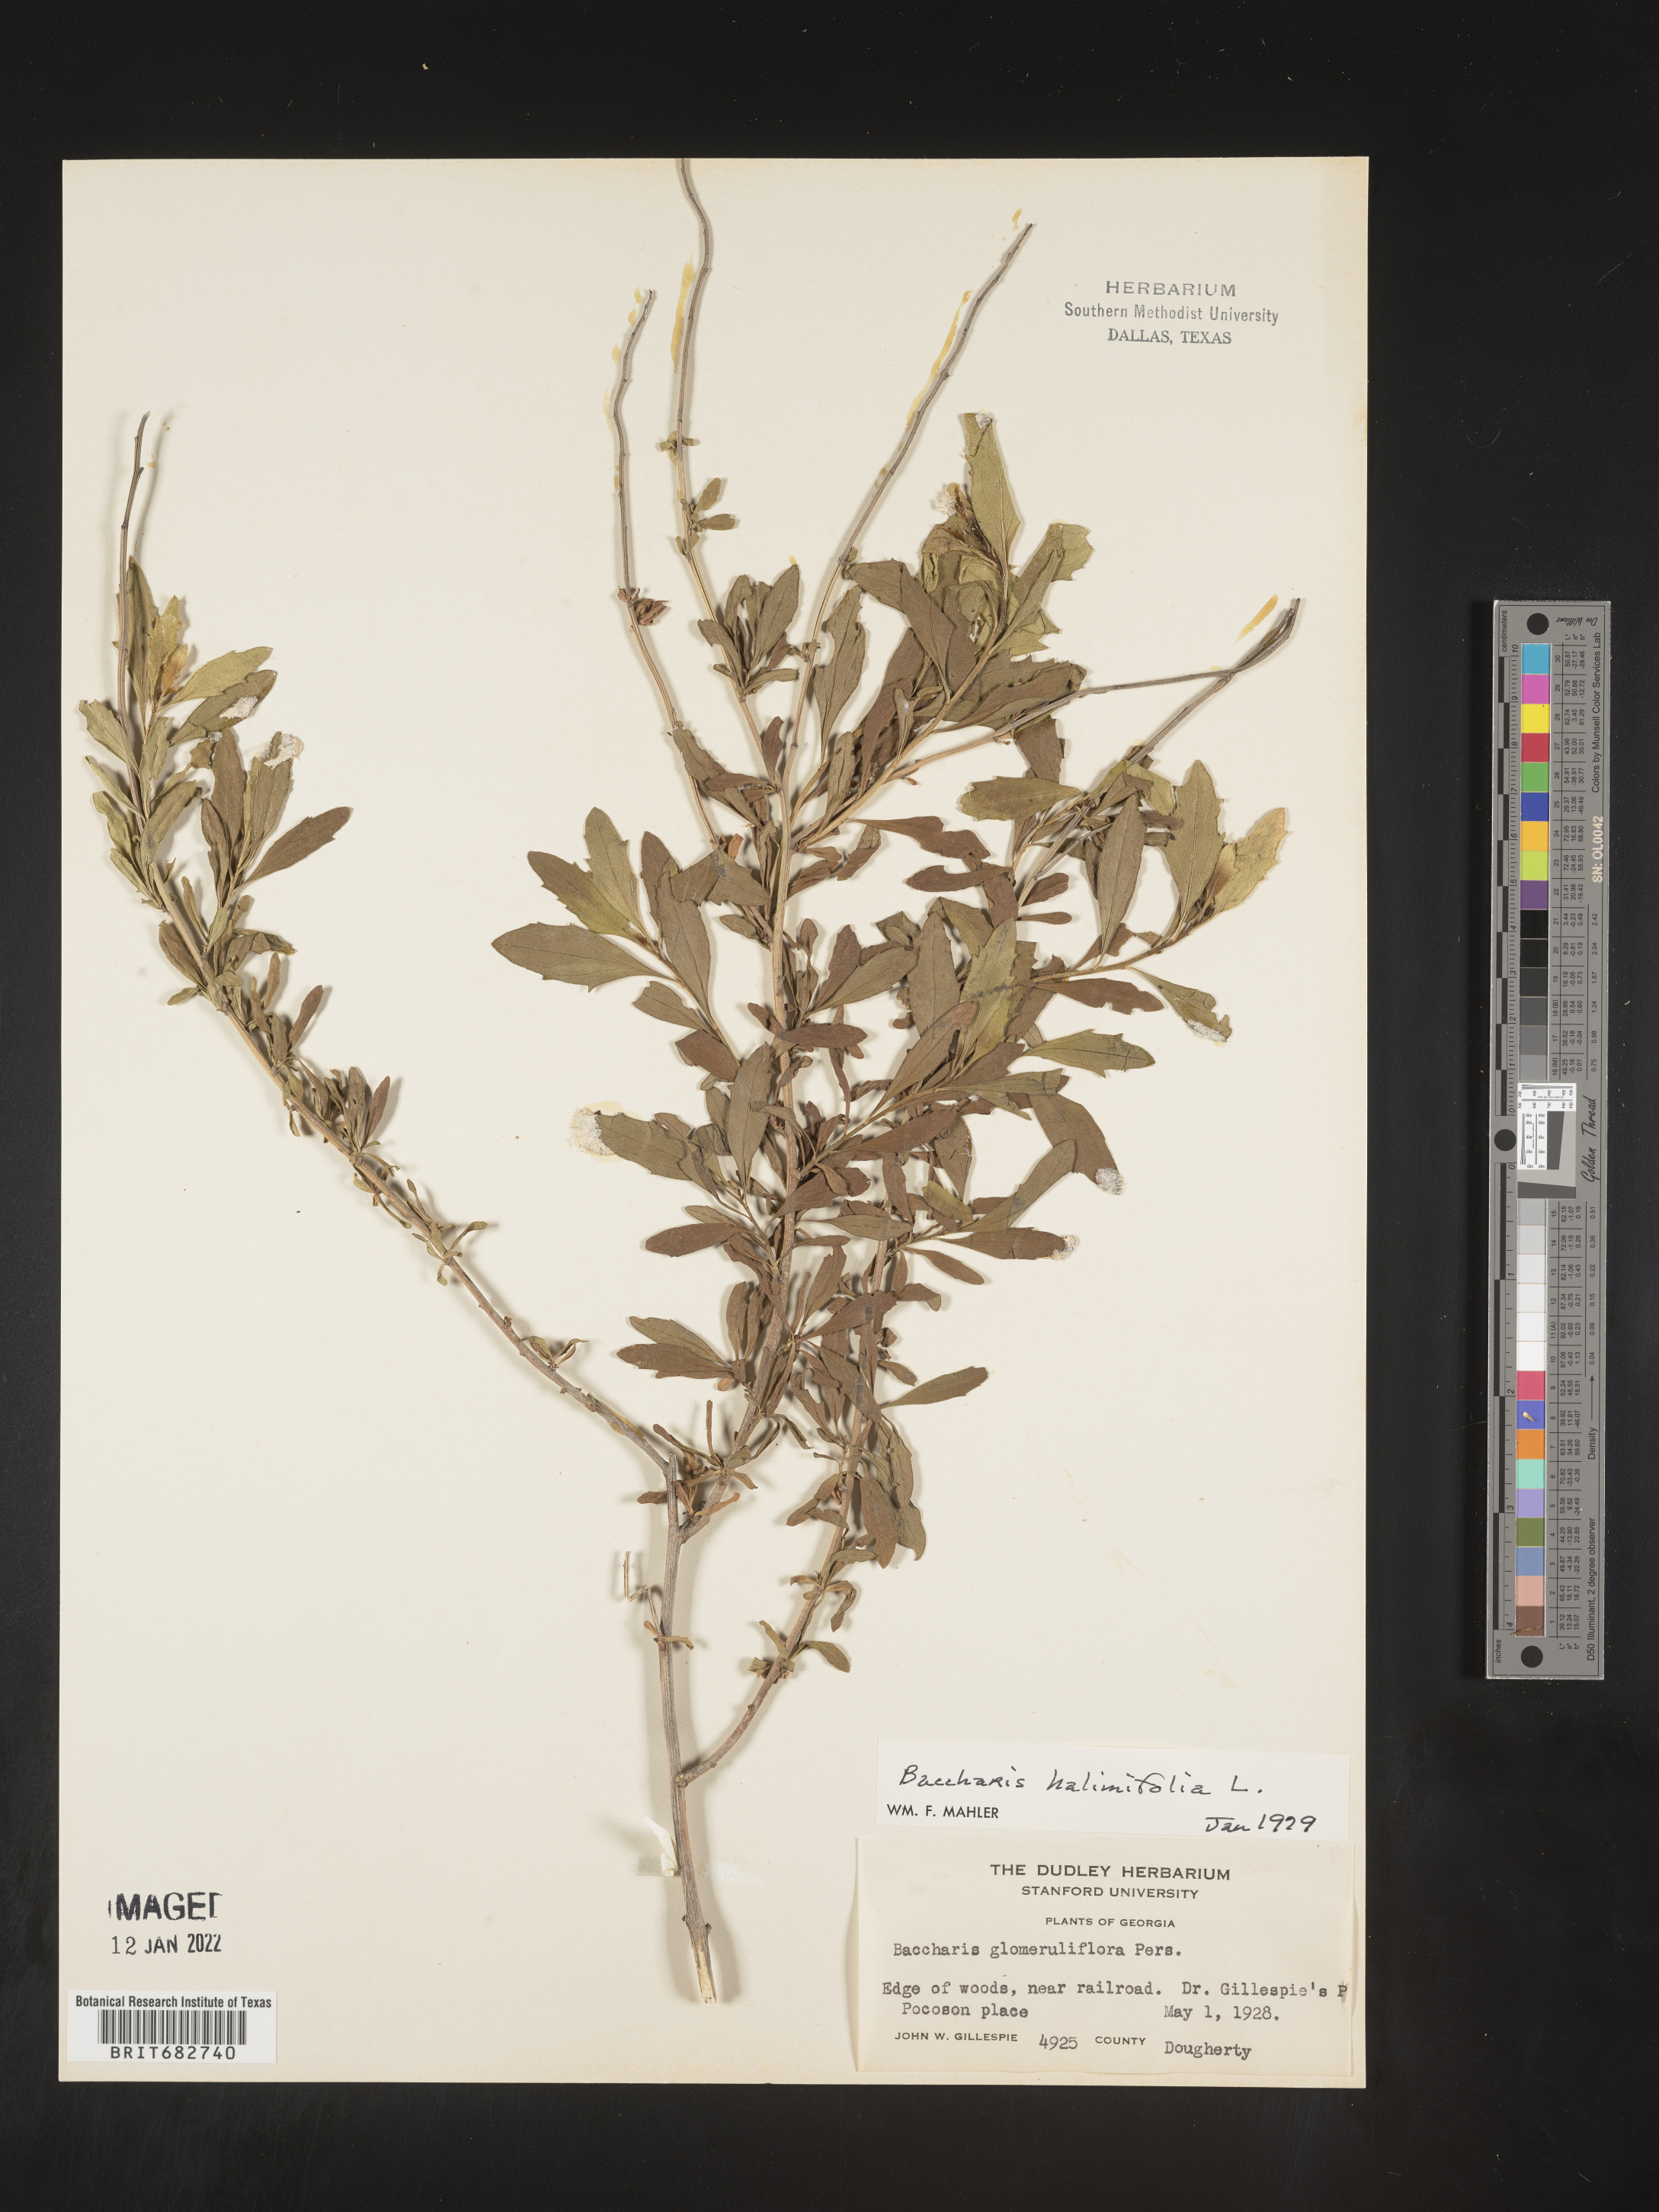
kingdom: Plantae
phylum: Tracheophyta
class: Magnoliopsida
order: Asterales
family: Asteraceae
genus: Nidorella
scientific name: Nidorella ivifolia
